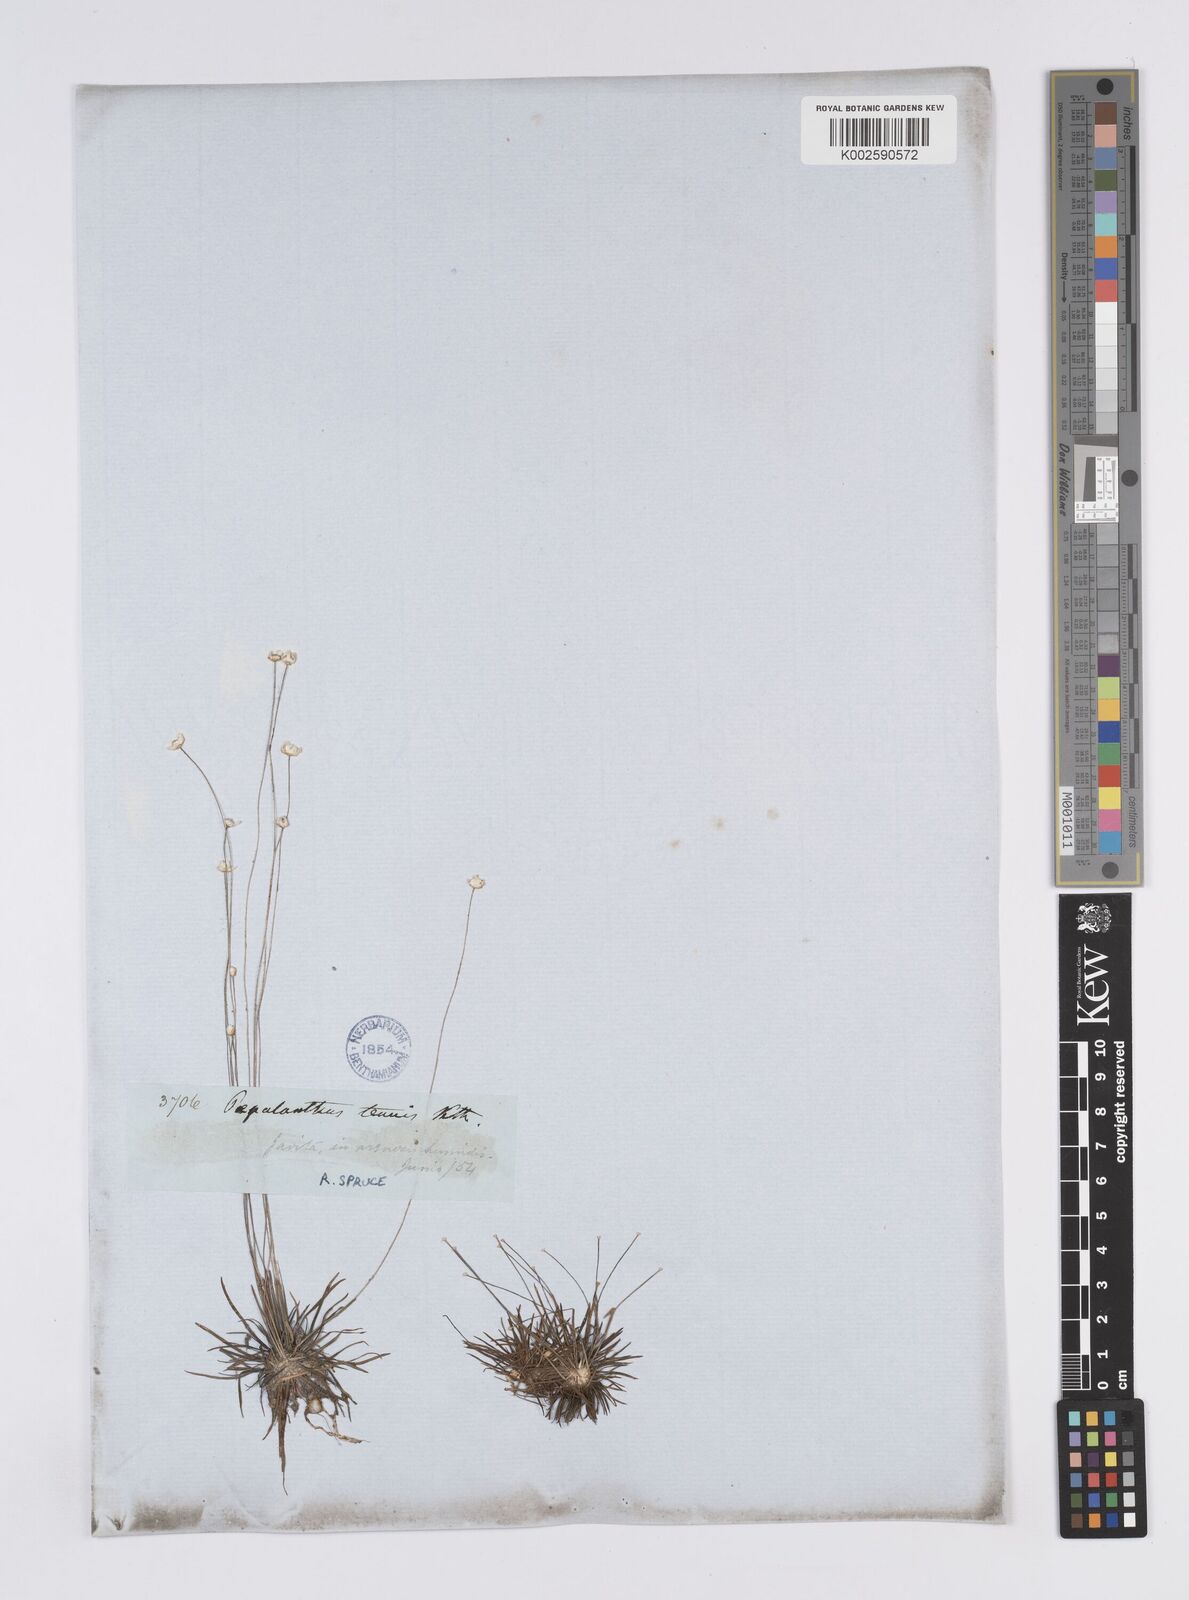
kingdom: Plantae
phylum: Tracheophyta
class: Liliopsida
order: Poales
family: Eriocaulaceae
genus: Syngonanthus
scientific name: Syngonanthus tenuis
